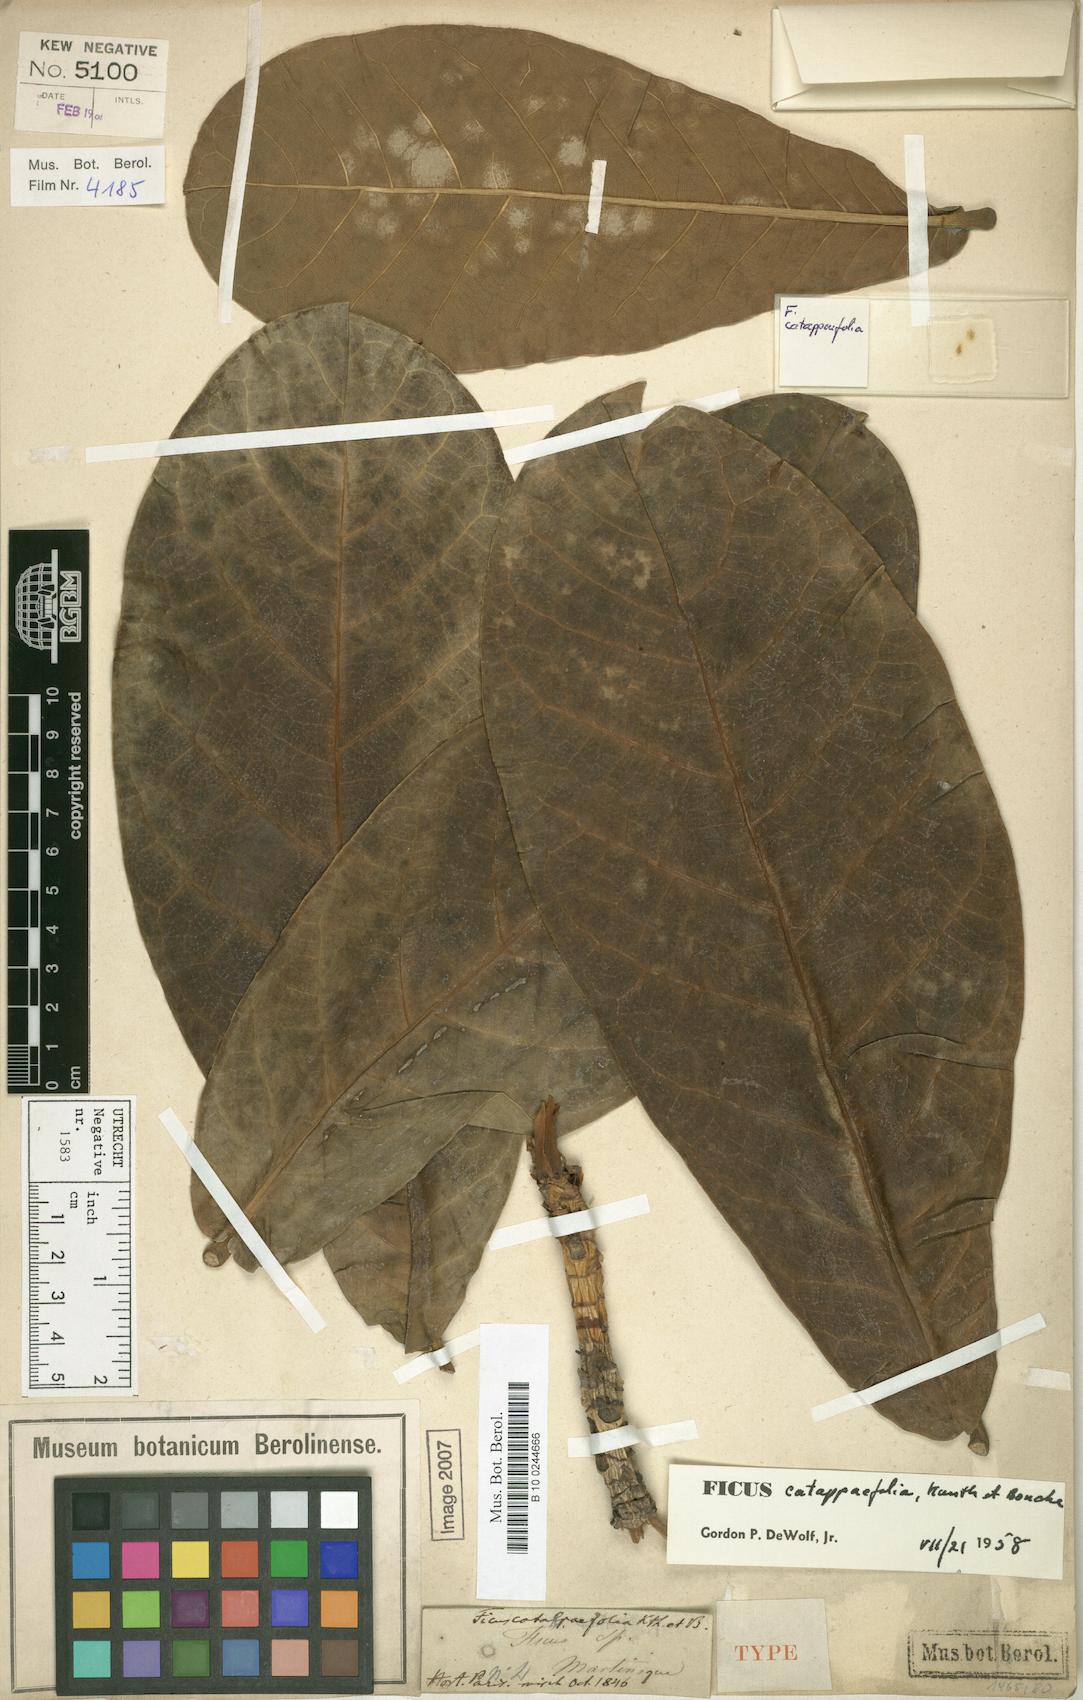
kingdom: Plantae
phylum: Tracheophyta
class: Magnoliopsida
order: Rosales
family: Moraceae
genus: Ficus
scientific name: Ficus catappifolia
